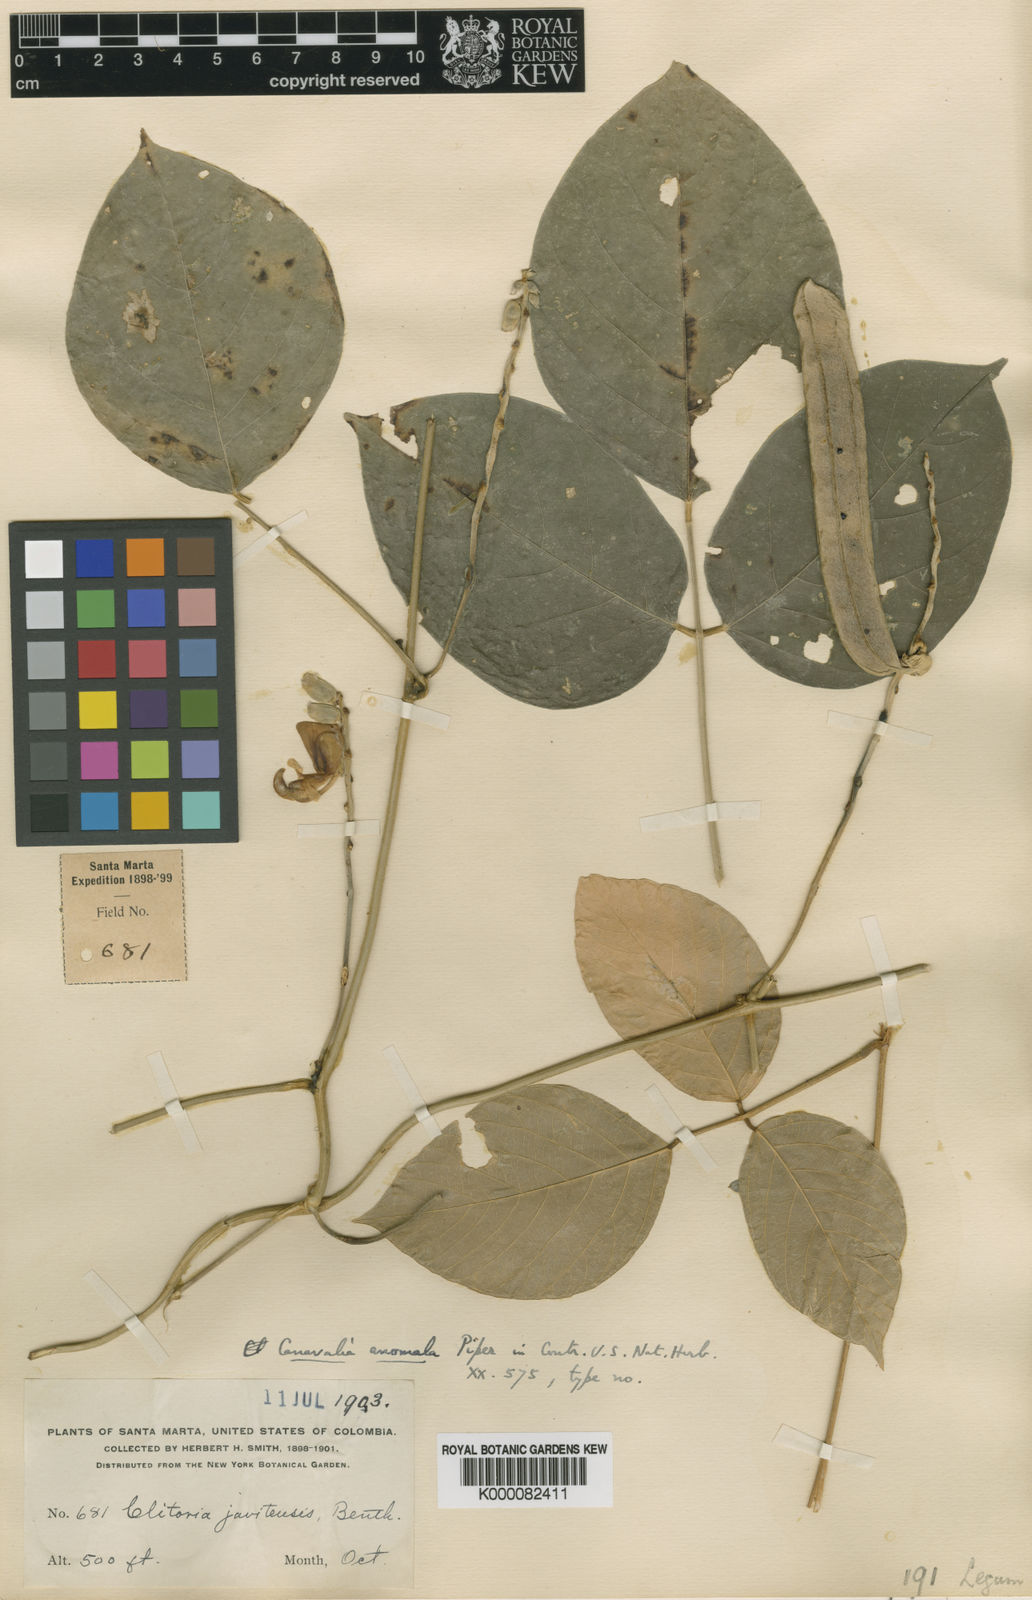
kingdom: Plantae
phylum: Tracheophyta
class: Magnoliopsida
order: Fabales
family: Fabaceae
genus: Canavalia
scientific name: Canavalia brasiliensis
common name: Barbicou-bean
